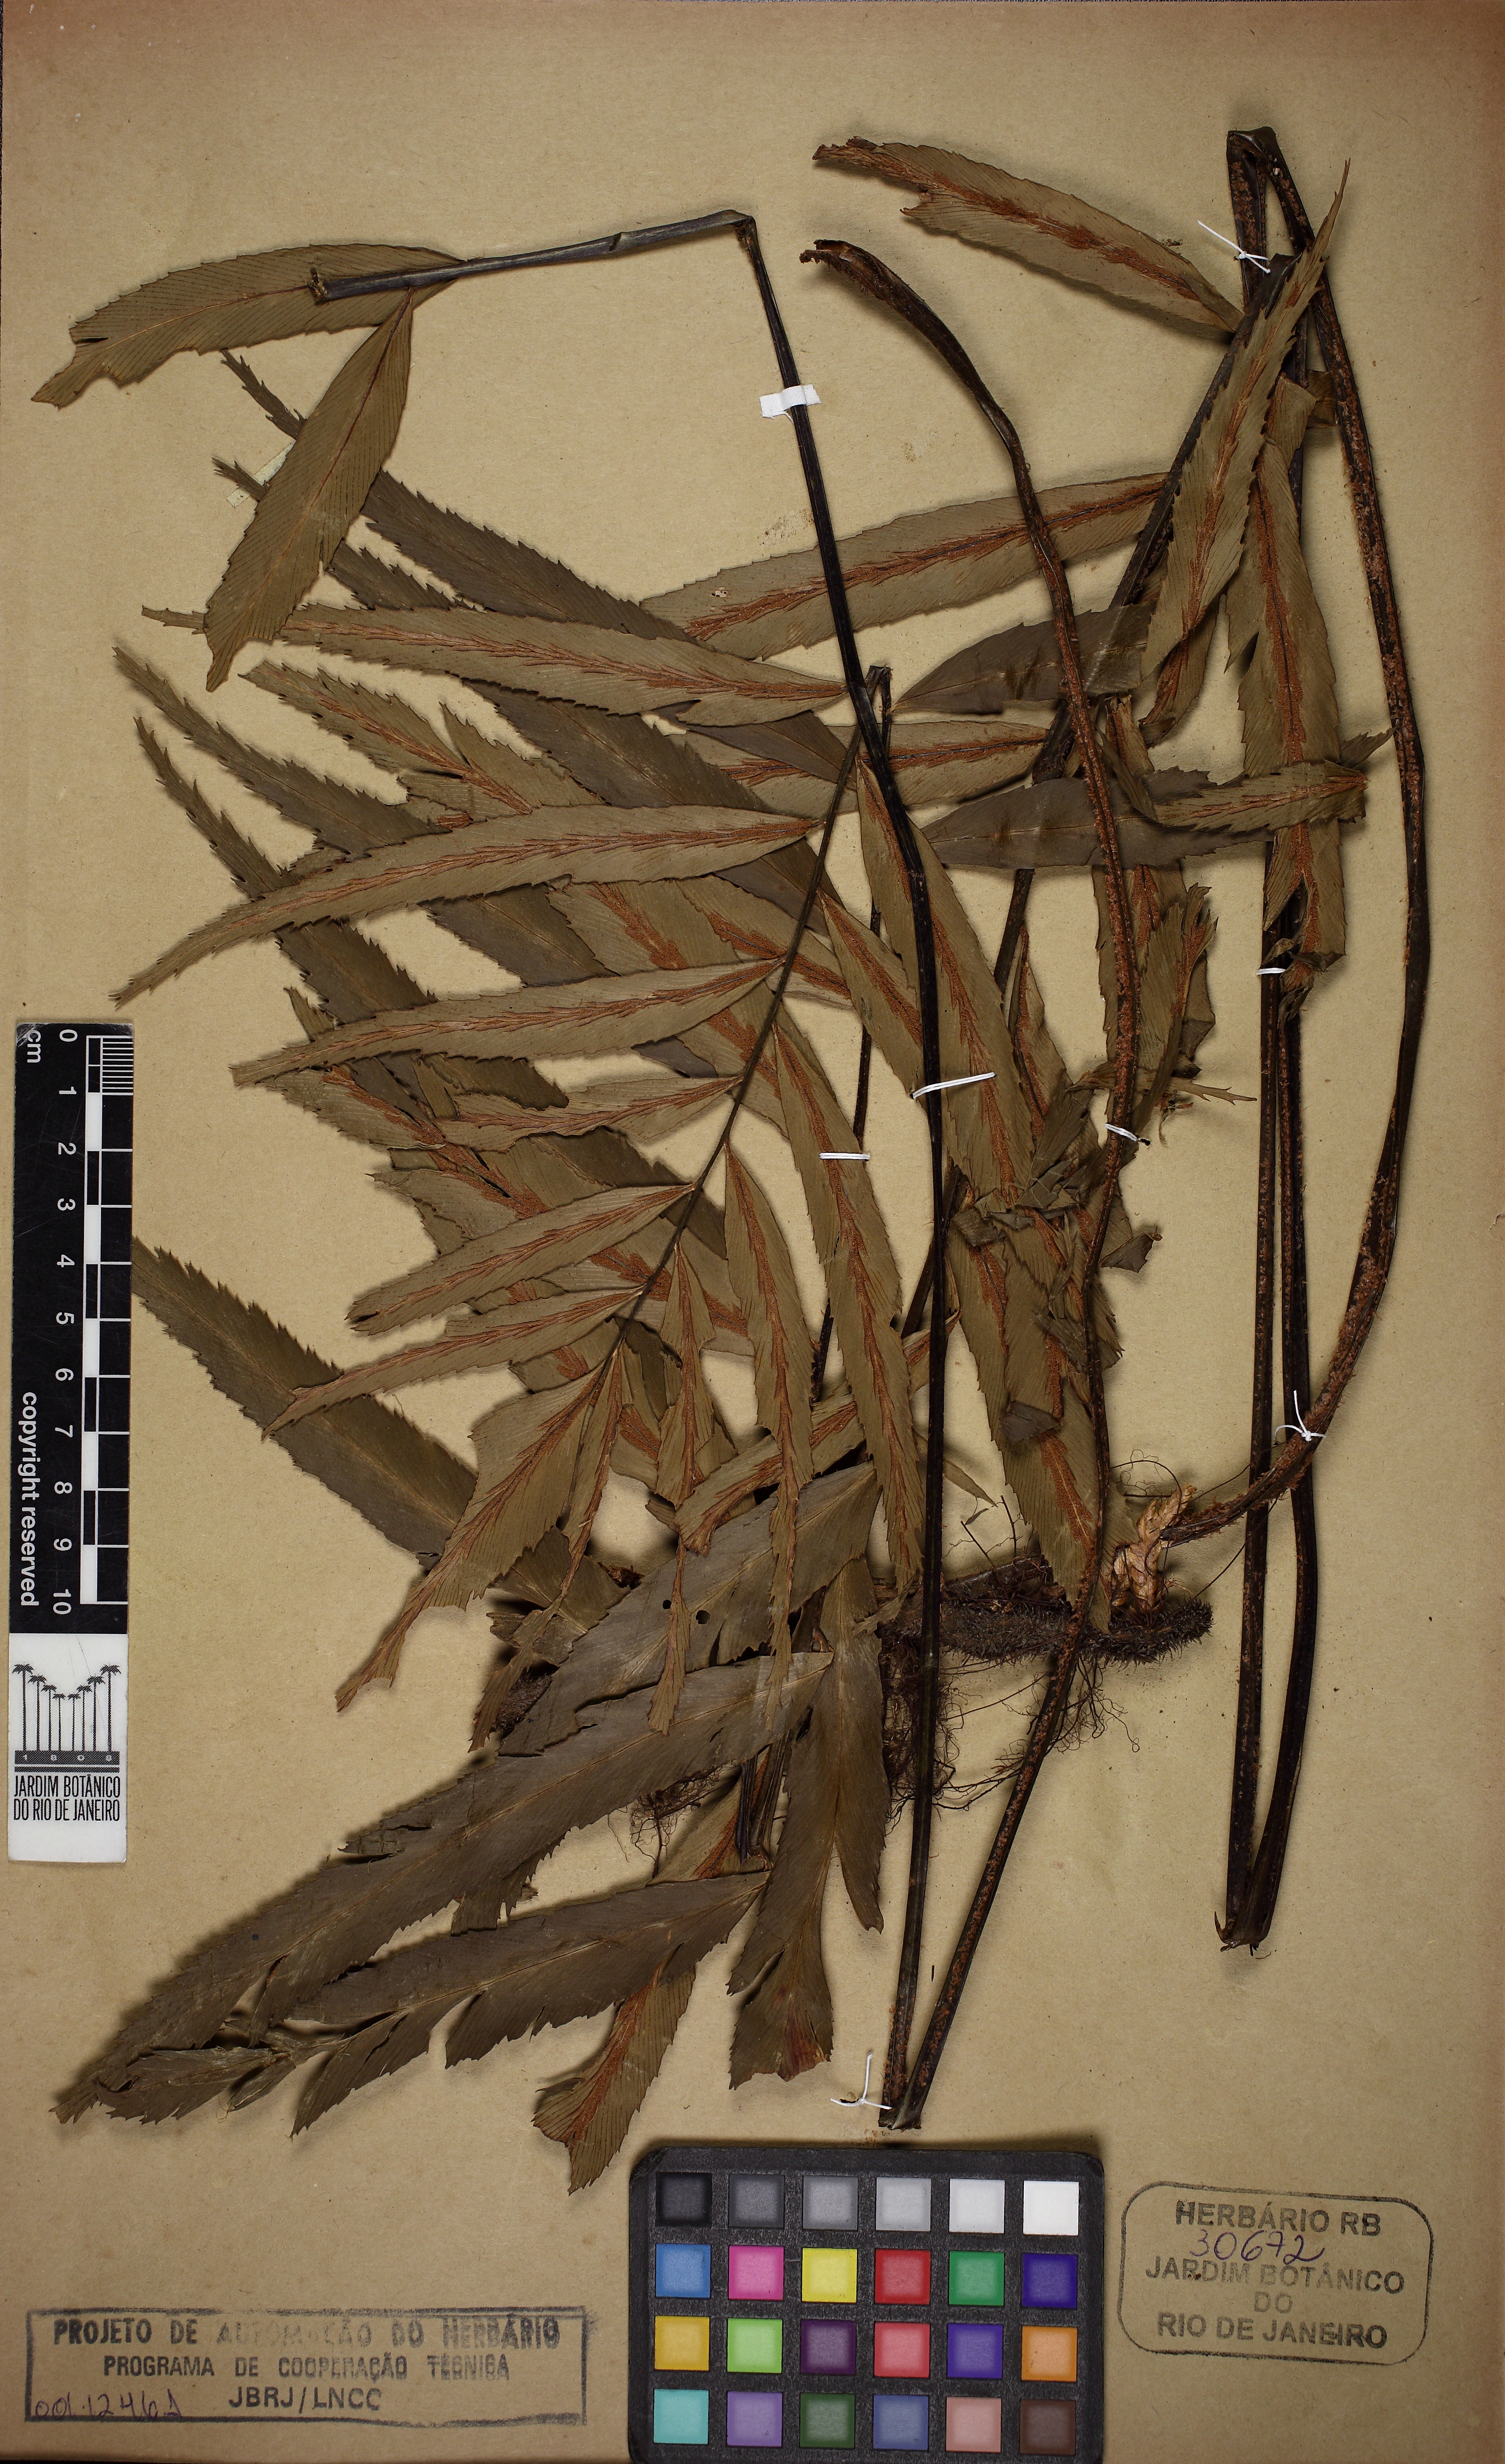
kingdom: Plantae
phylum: Tracheophyta
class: Polypodiopsida
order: Polypodiales
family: Aspleniaceae
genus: Asplenium
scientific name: Asplenium campos-portoi
